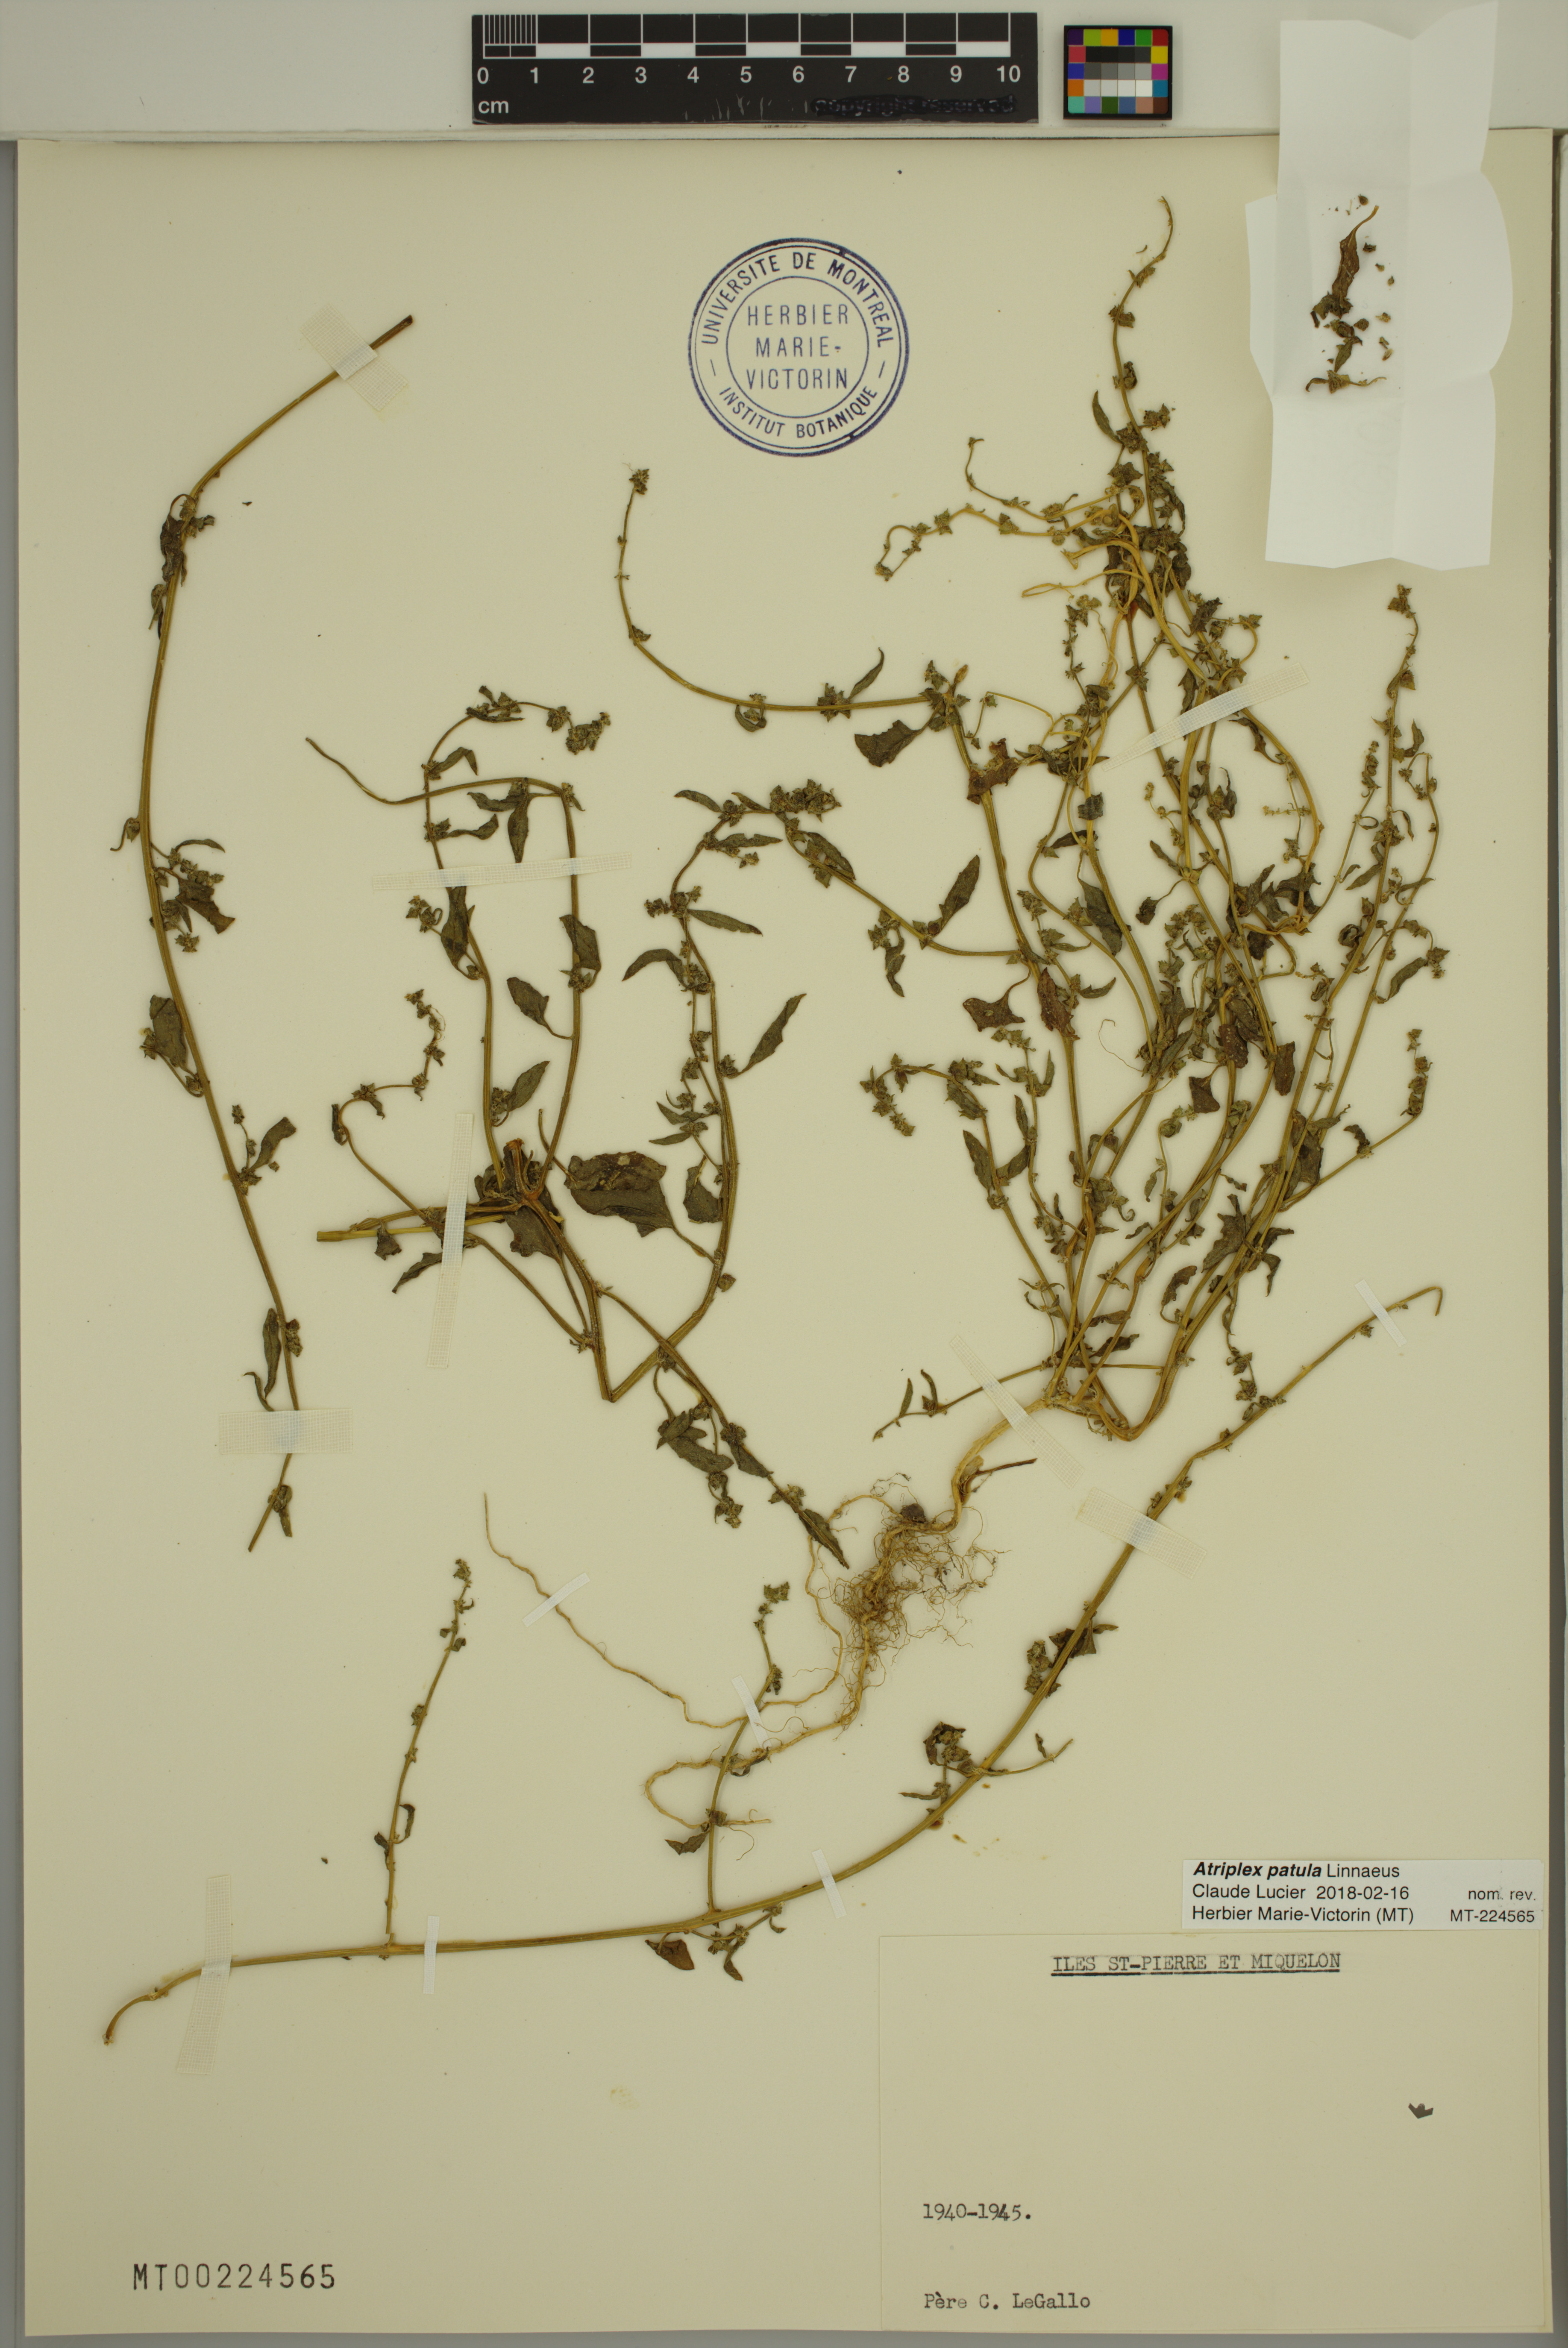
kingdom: Plantae
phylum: Tracheophyta
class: Magnoliopsida
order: Caryophyllales
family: Amaranthaceae
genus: Atriplex
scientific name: Atriplex patula
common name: Common orache
